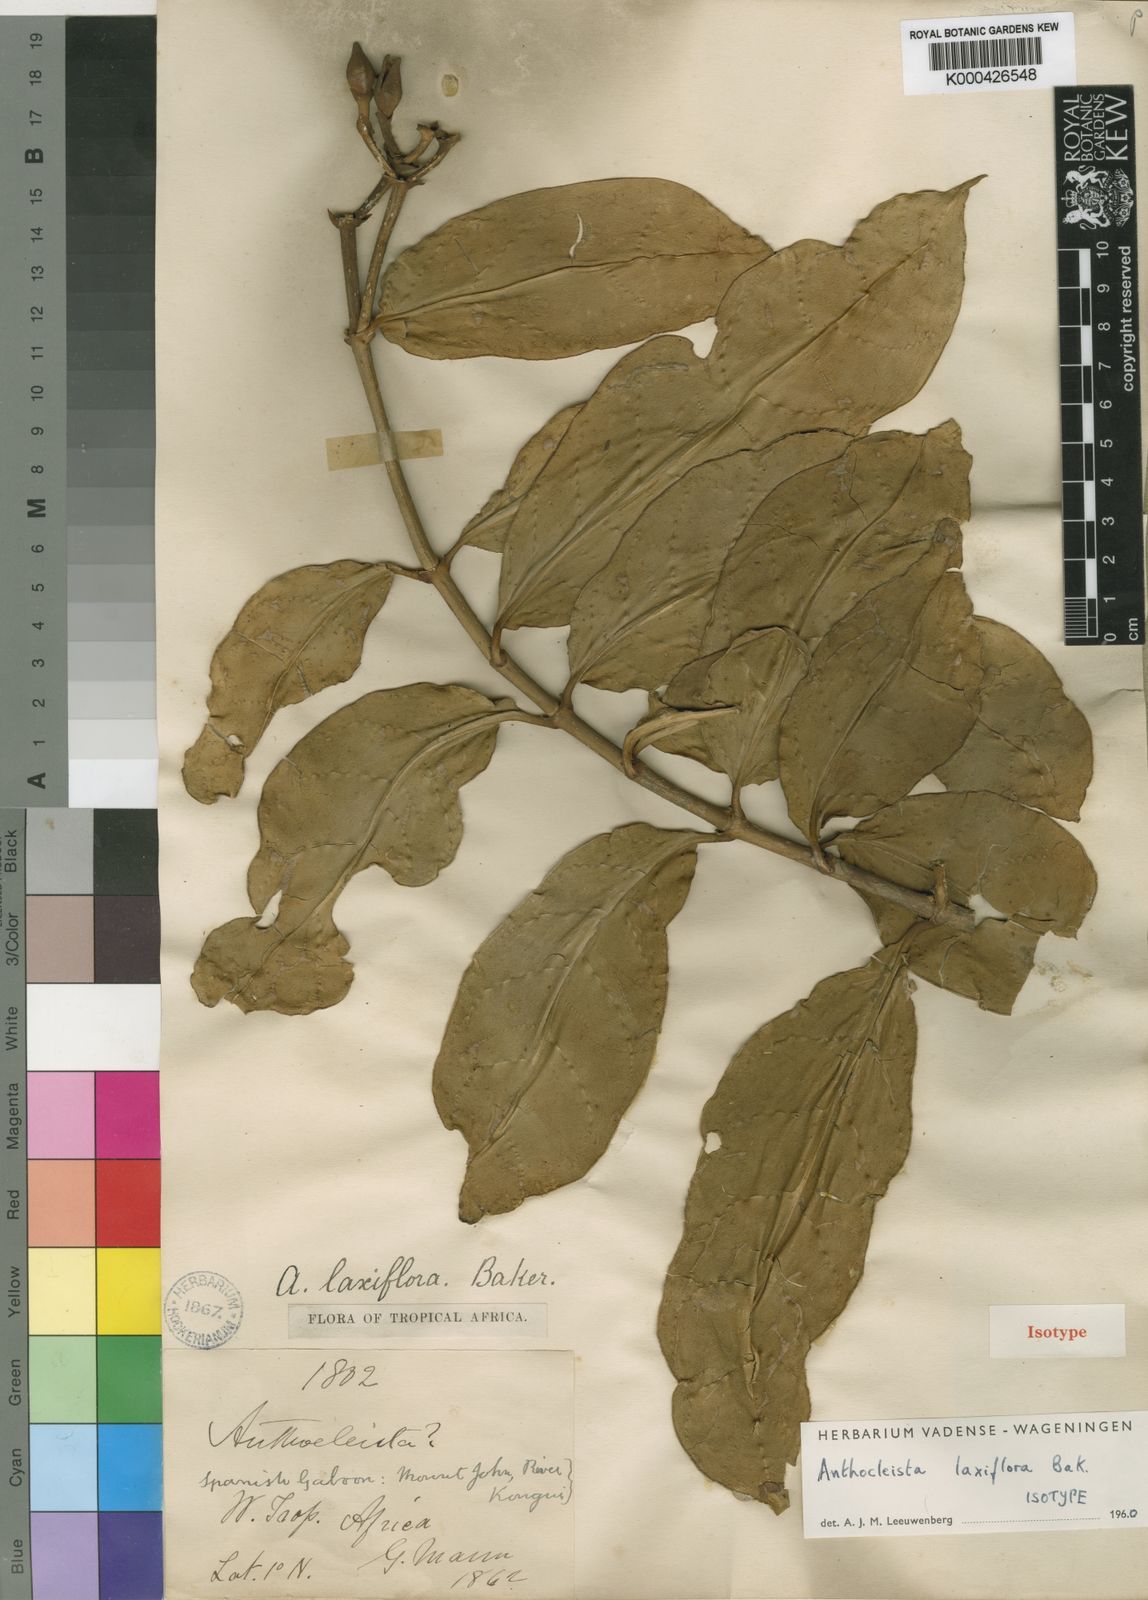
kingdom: Plantae
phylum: Tracheophyta
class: Magnoliopsida
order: Gentianales
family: Gentianaceae
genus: Anthocleista
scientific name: Anthocleista laxiflora
